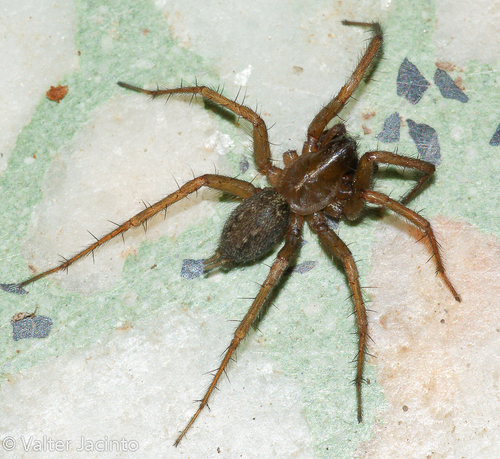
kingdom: Animalia
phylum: Arthropoda
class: Arachnida
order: Araneae
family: Agelenidae
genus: Lycosoides
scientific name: Lycosoides coarctata
